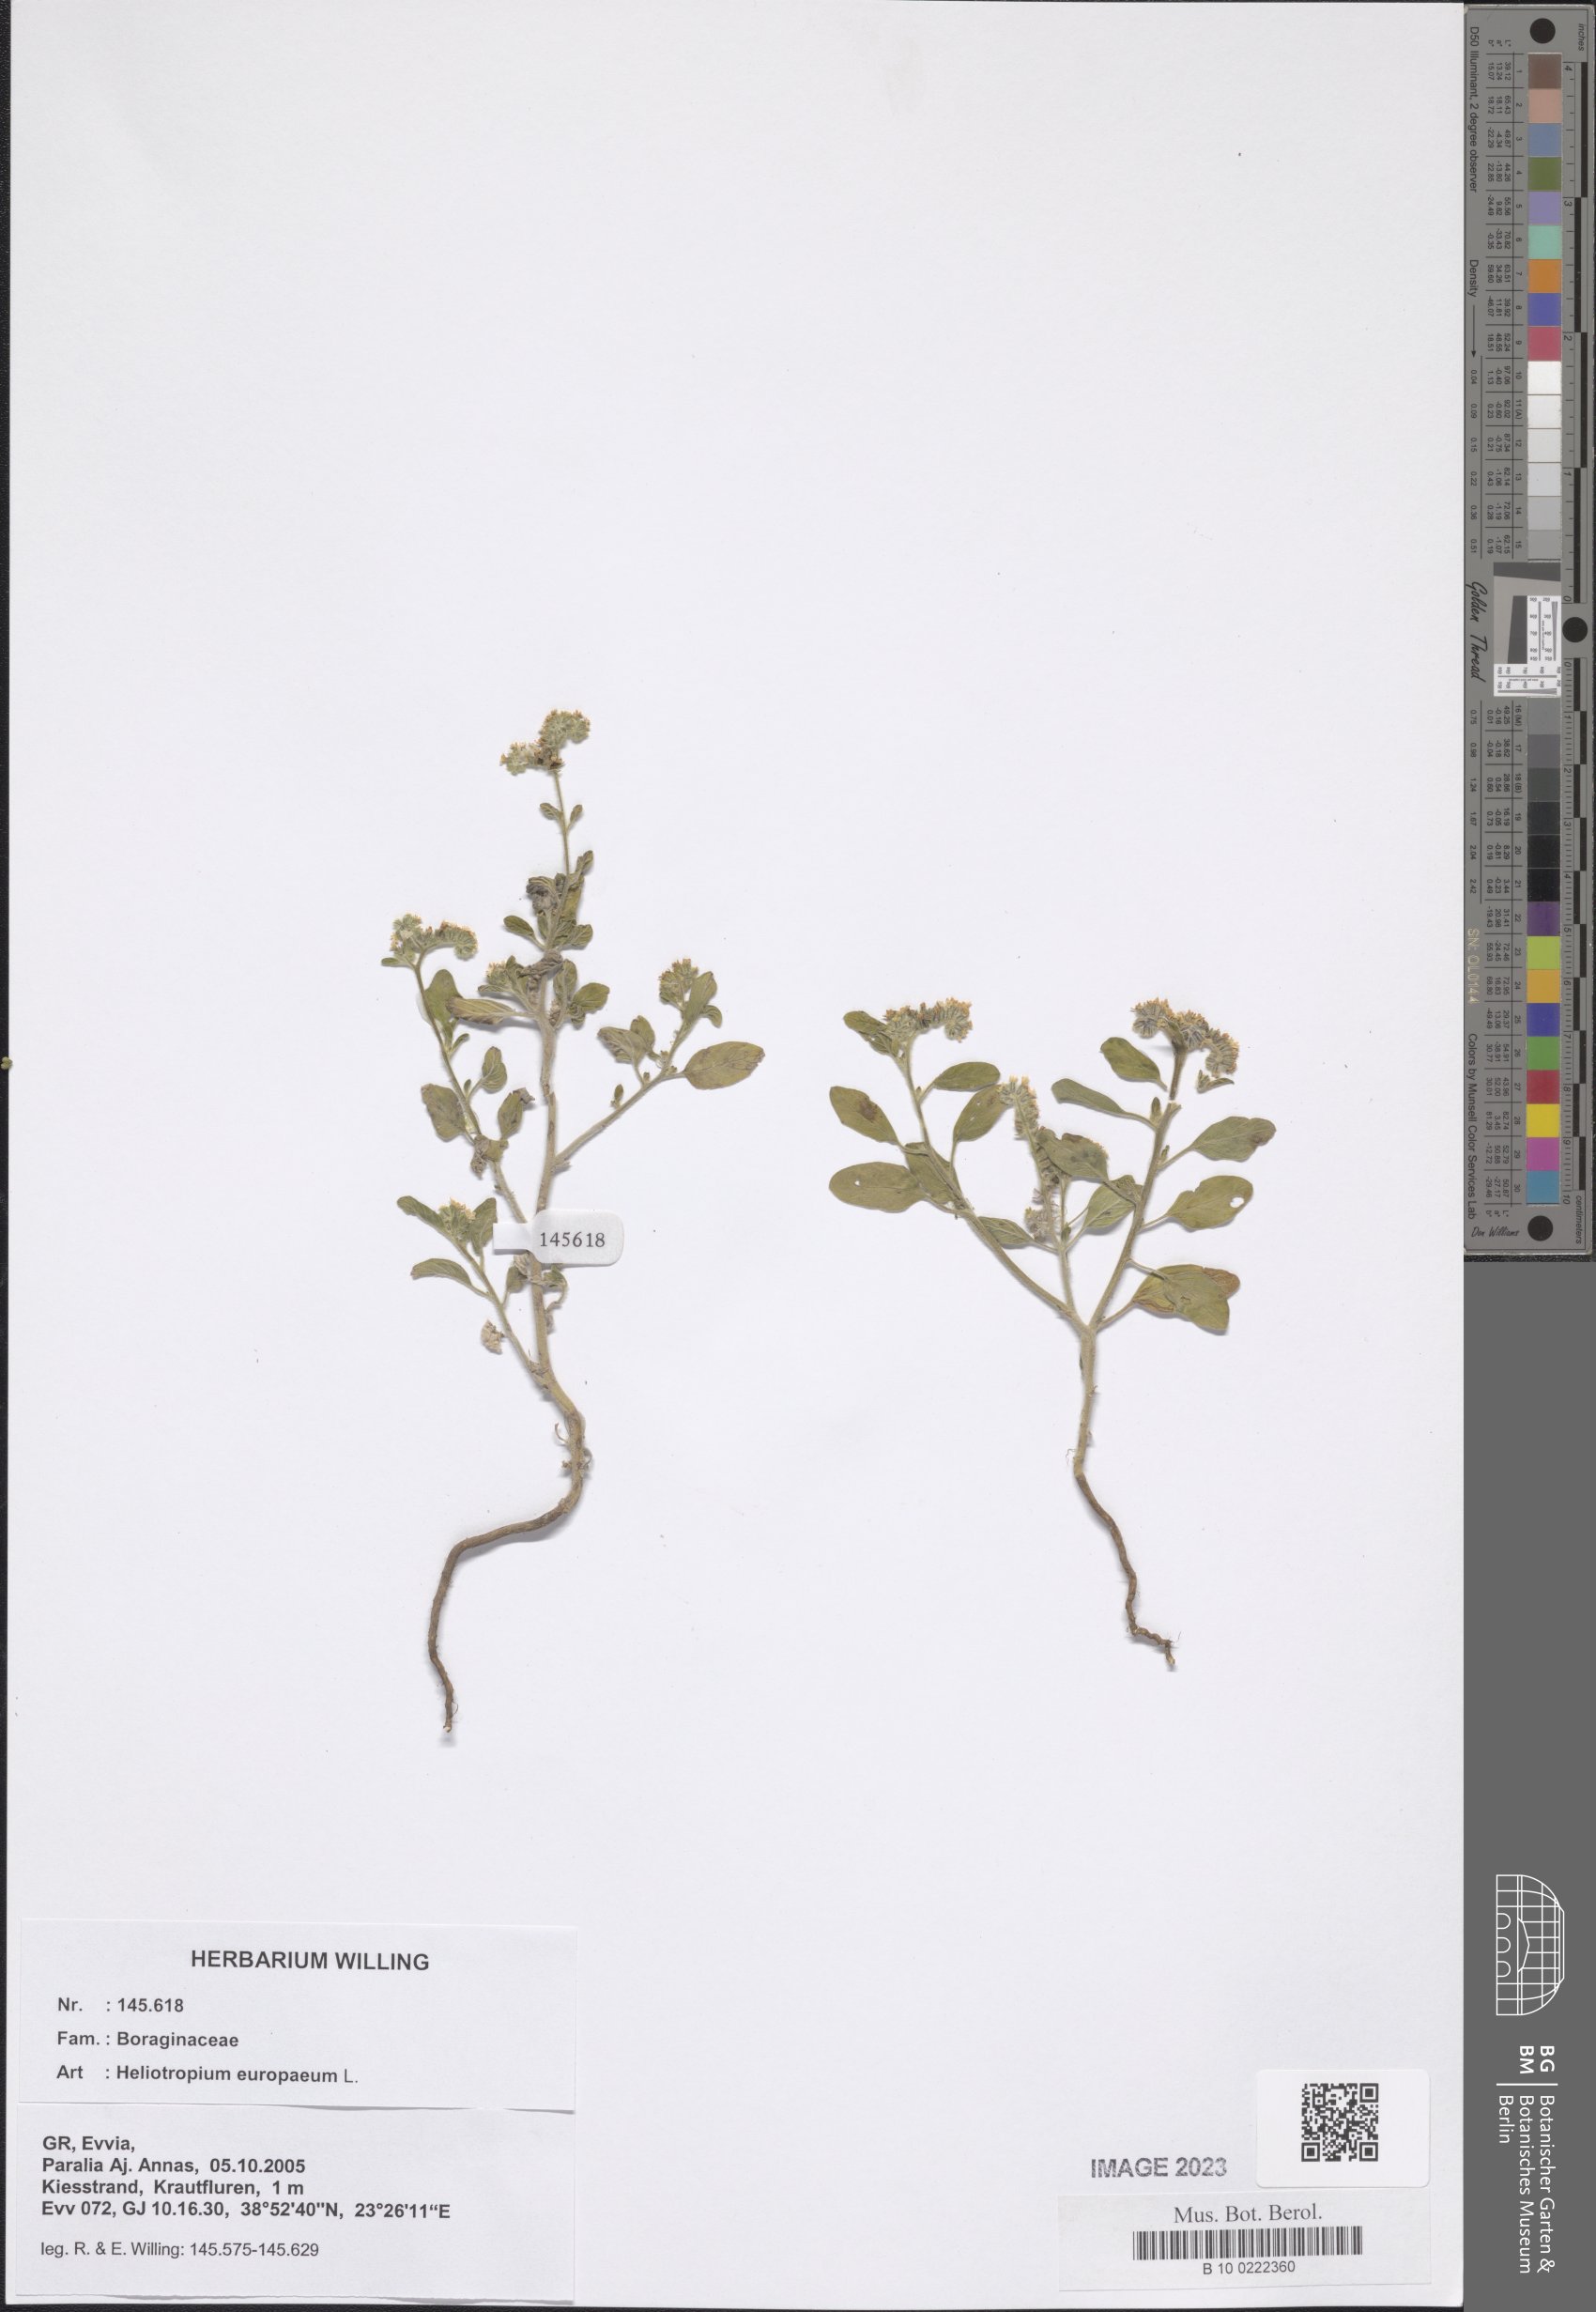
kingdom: Plantae
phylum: Tracheophyta
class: Magnoliopsida
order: Boraginales
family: Heliotropiaceae
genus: Heliotropium
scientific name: Heliotropium europaeum
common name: European heliotrope
